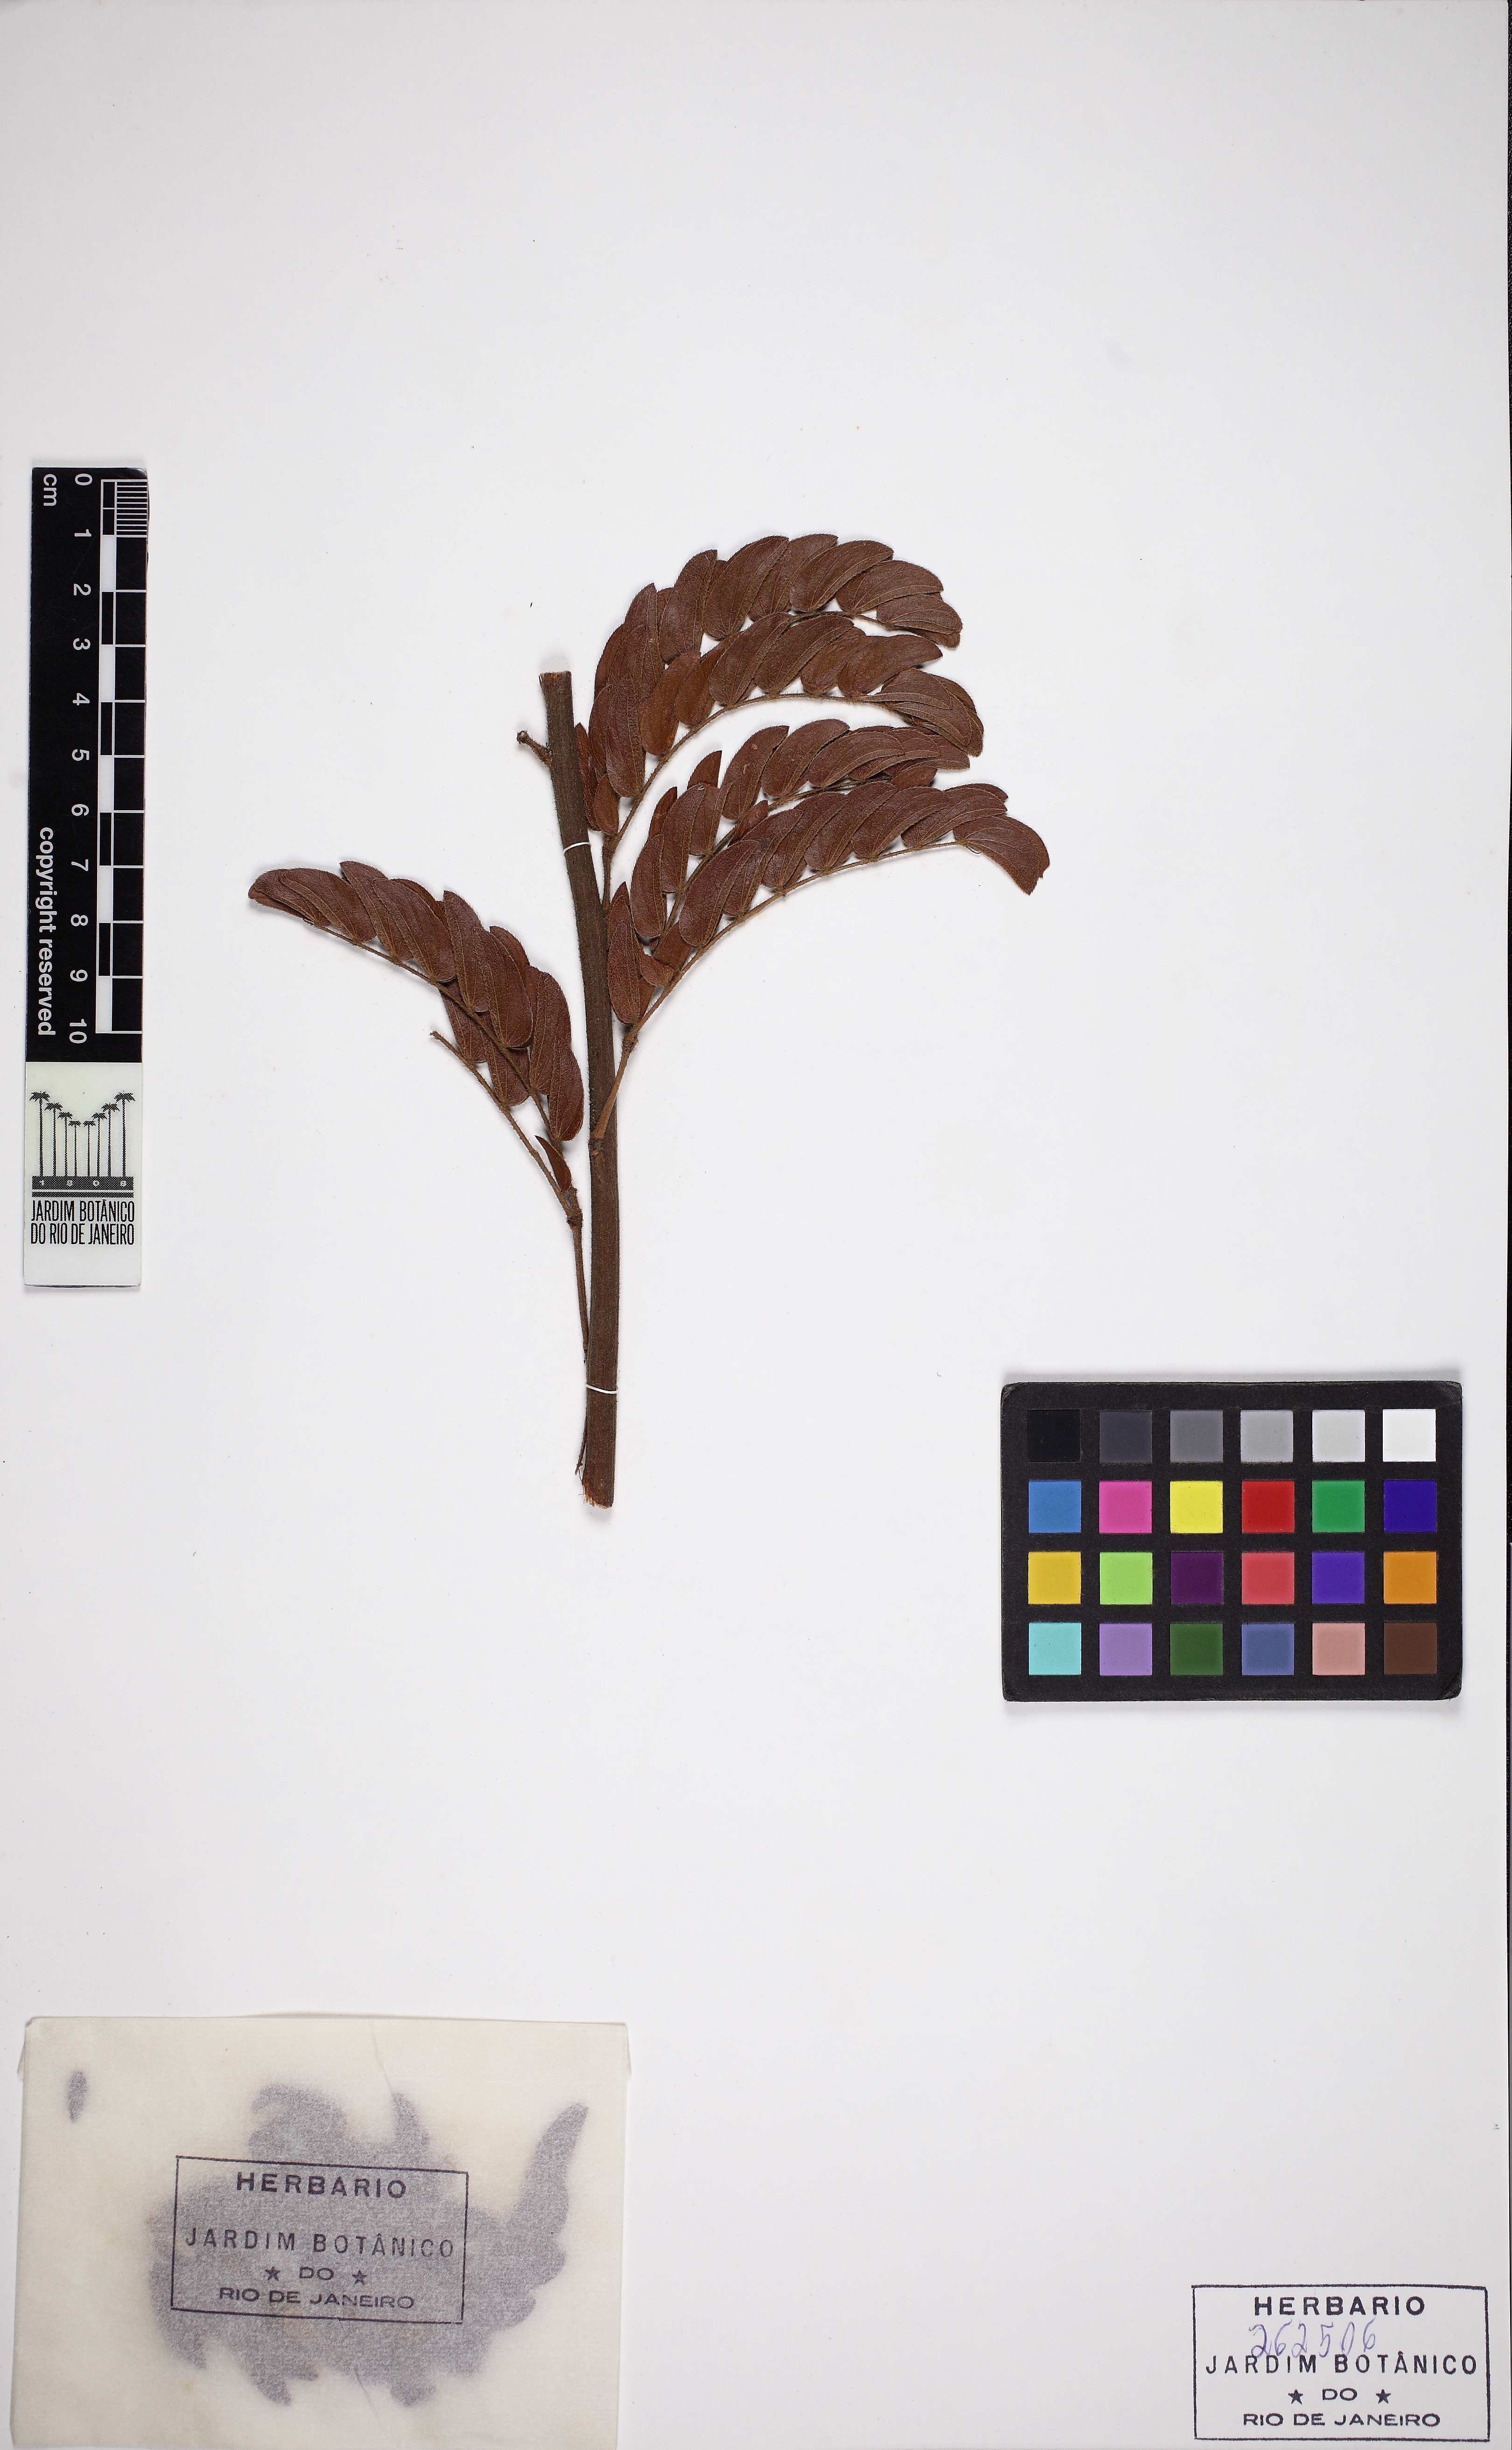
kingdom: Plantae
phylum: Tracheophyta
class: Magnoliopsida
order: Fabales
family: Fabaceae
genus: Mimosa
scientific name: Mimosa radula
